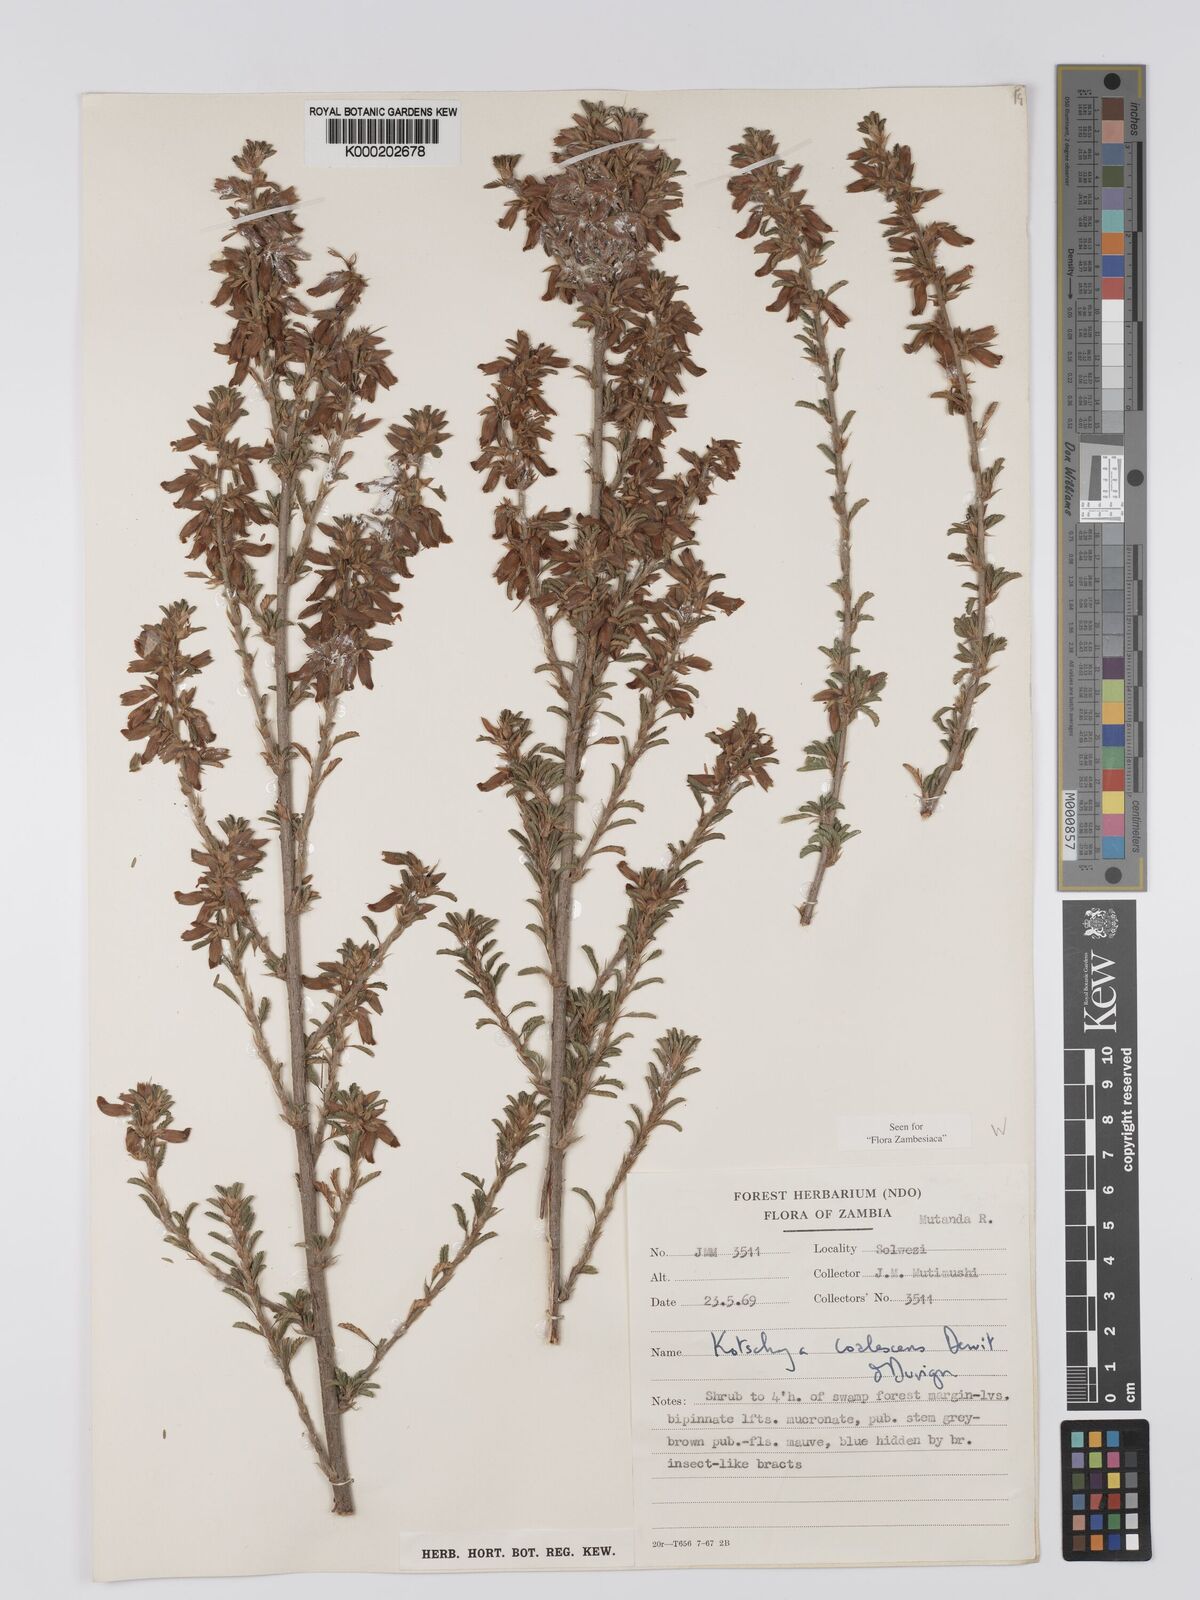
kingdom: Plantae
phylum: Tracheophyta
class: Magnoliopsida
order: Fabales
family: Fabaceae
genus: Kotschya
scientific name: Kotschya coalescens
